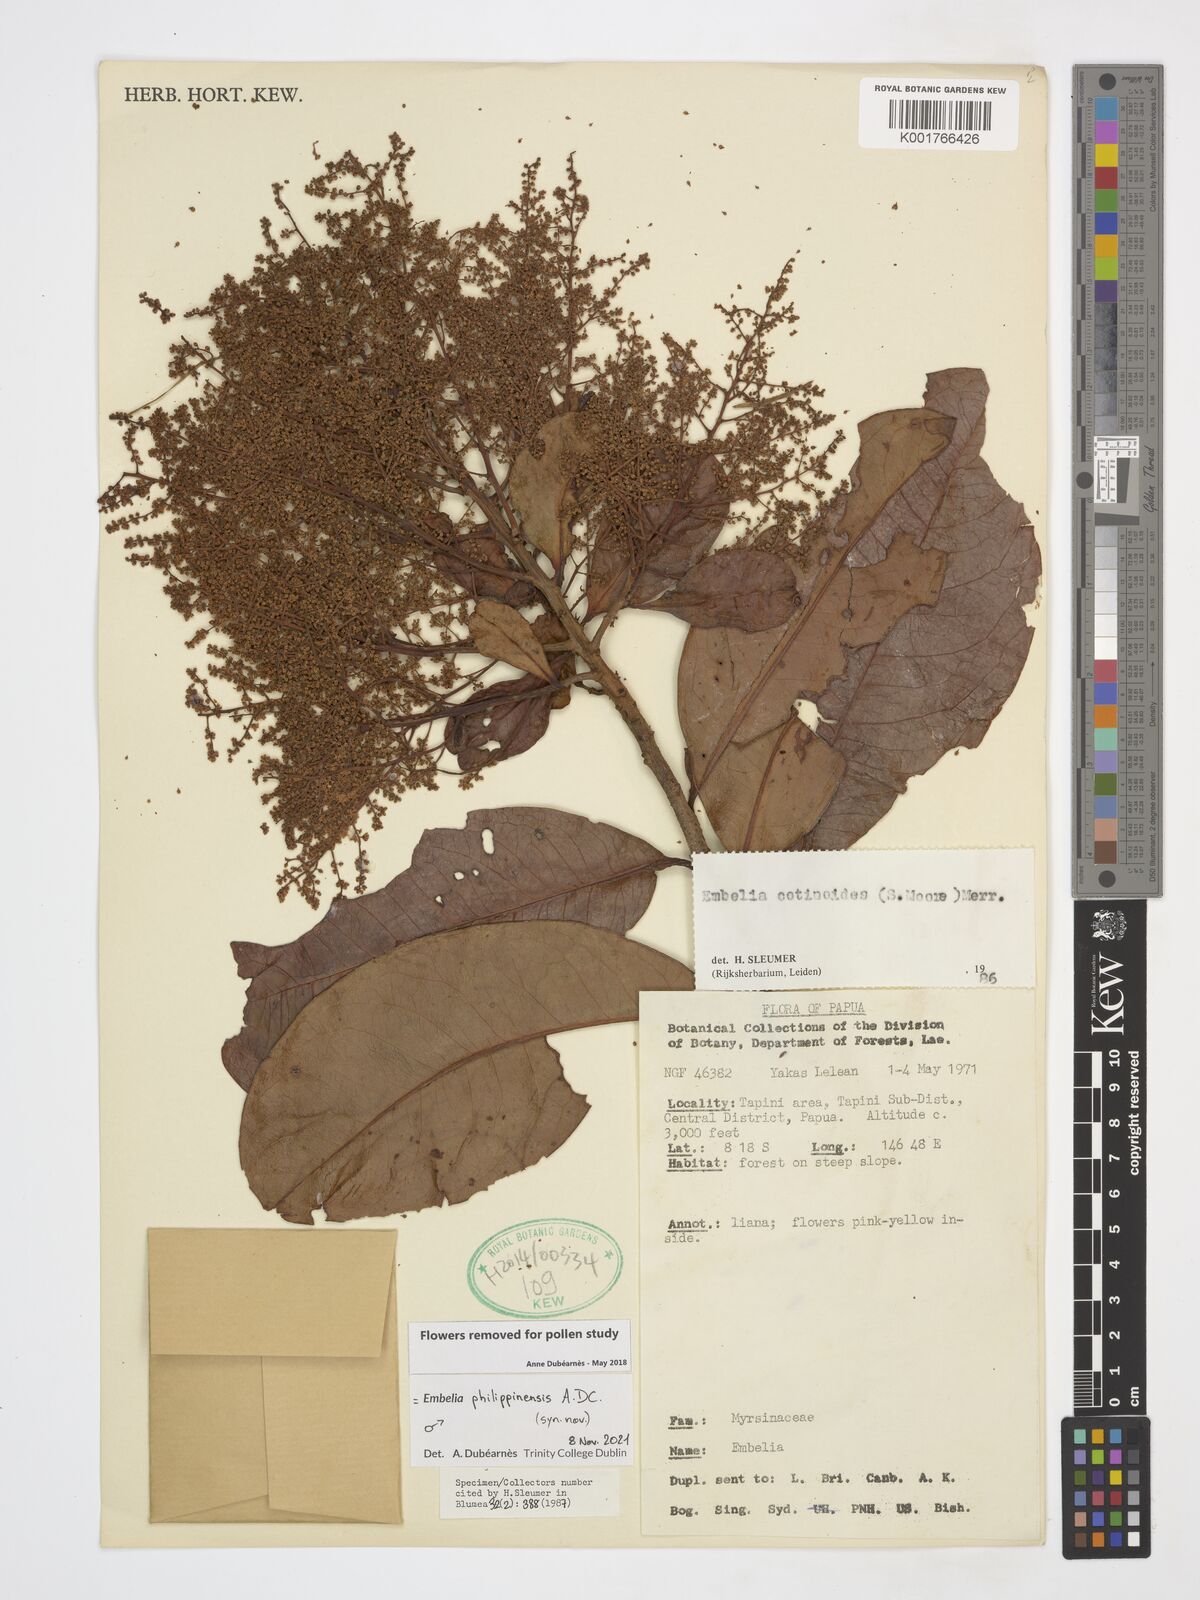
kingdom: Plantae
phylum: Tracheophyta
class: Magnoliopsida
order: Ericales
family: Primulaceae
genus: Embelia
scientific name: Embelia philippinensis
